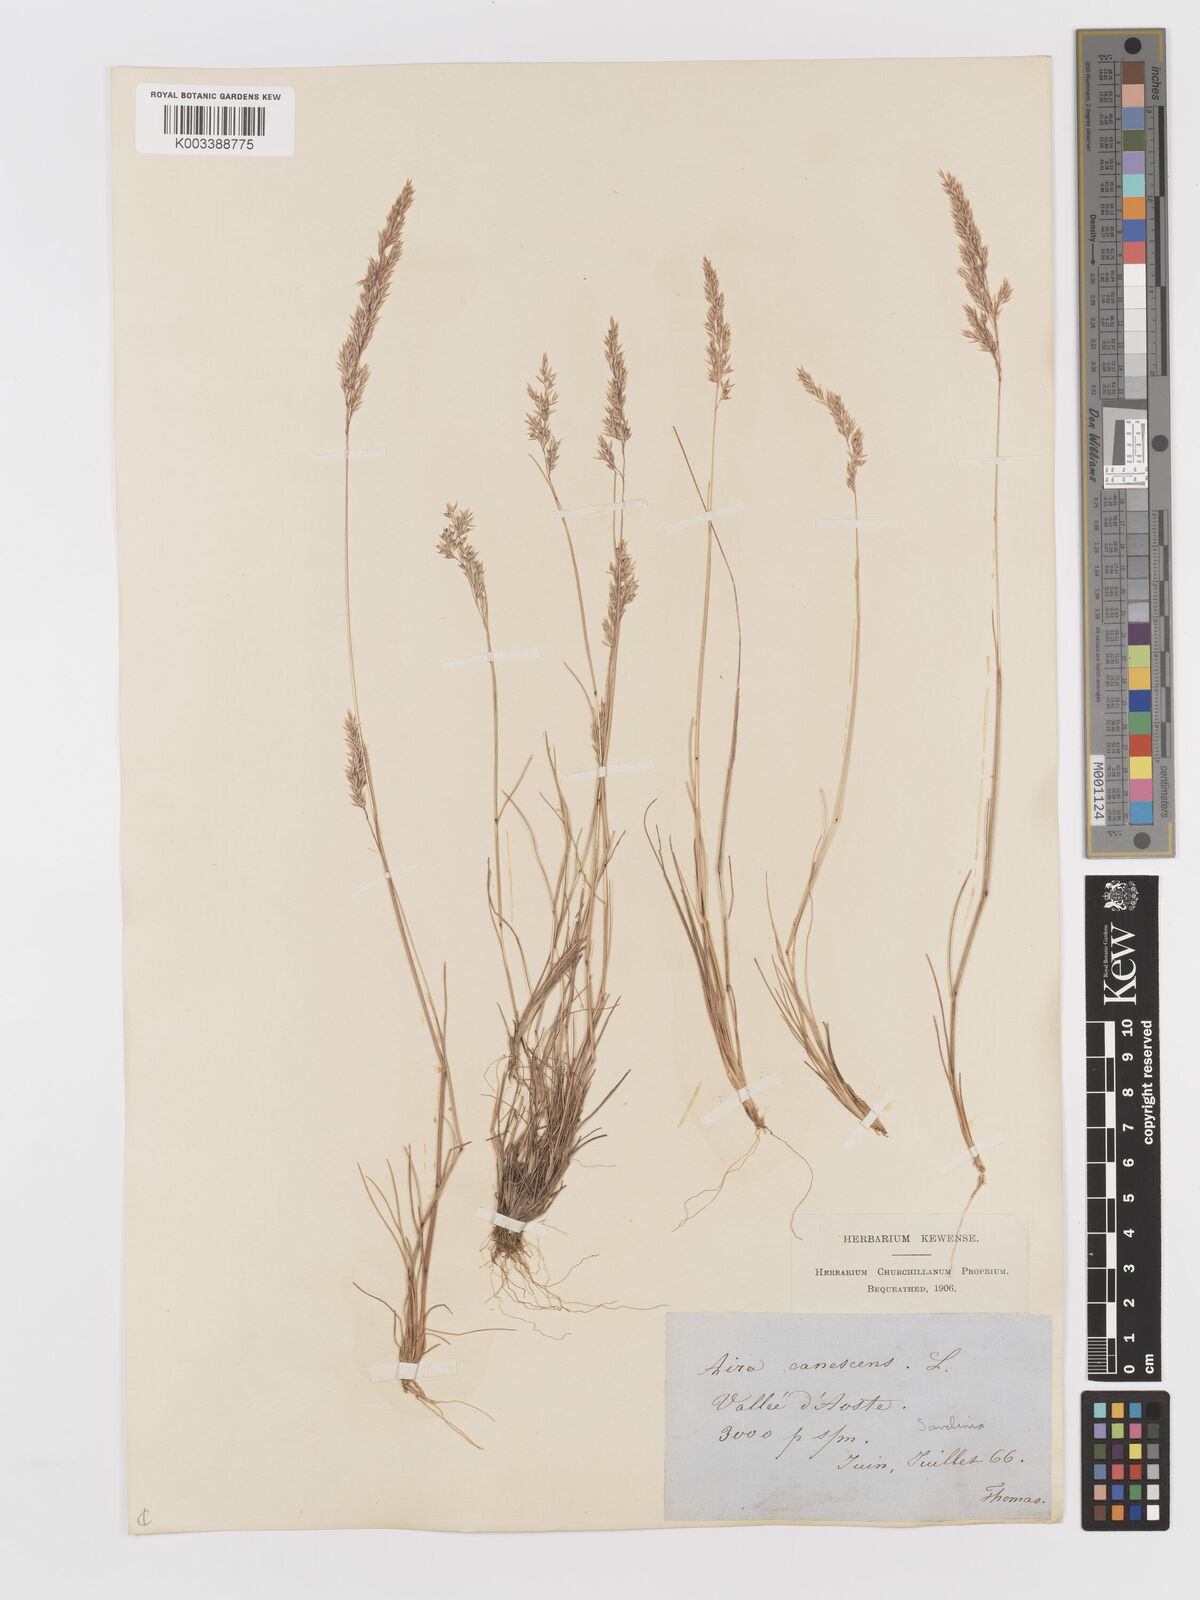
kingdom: Plantae
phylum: Tracheophyta
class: Liliopsida
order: Poales
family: Poaceae
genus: Corynephorus
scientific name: Corynephorus canescens
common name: Grey hair-grass
